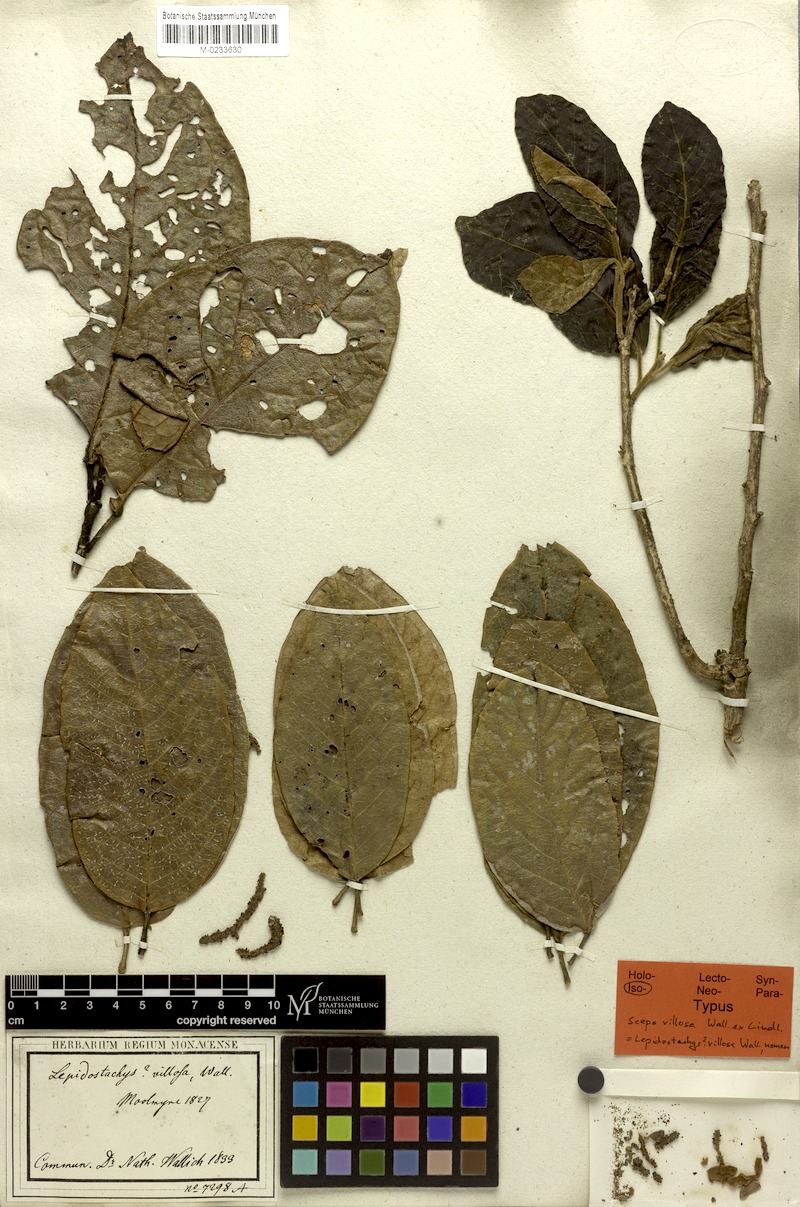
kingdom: Plantae
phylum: Tracheophyta
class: Magnoliopsida
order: Malpighiales
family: Phyllanthaceae
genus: Aporosa
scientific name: Aporosa villosa
